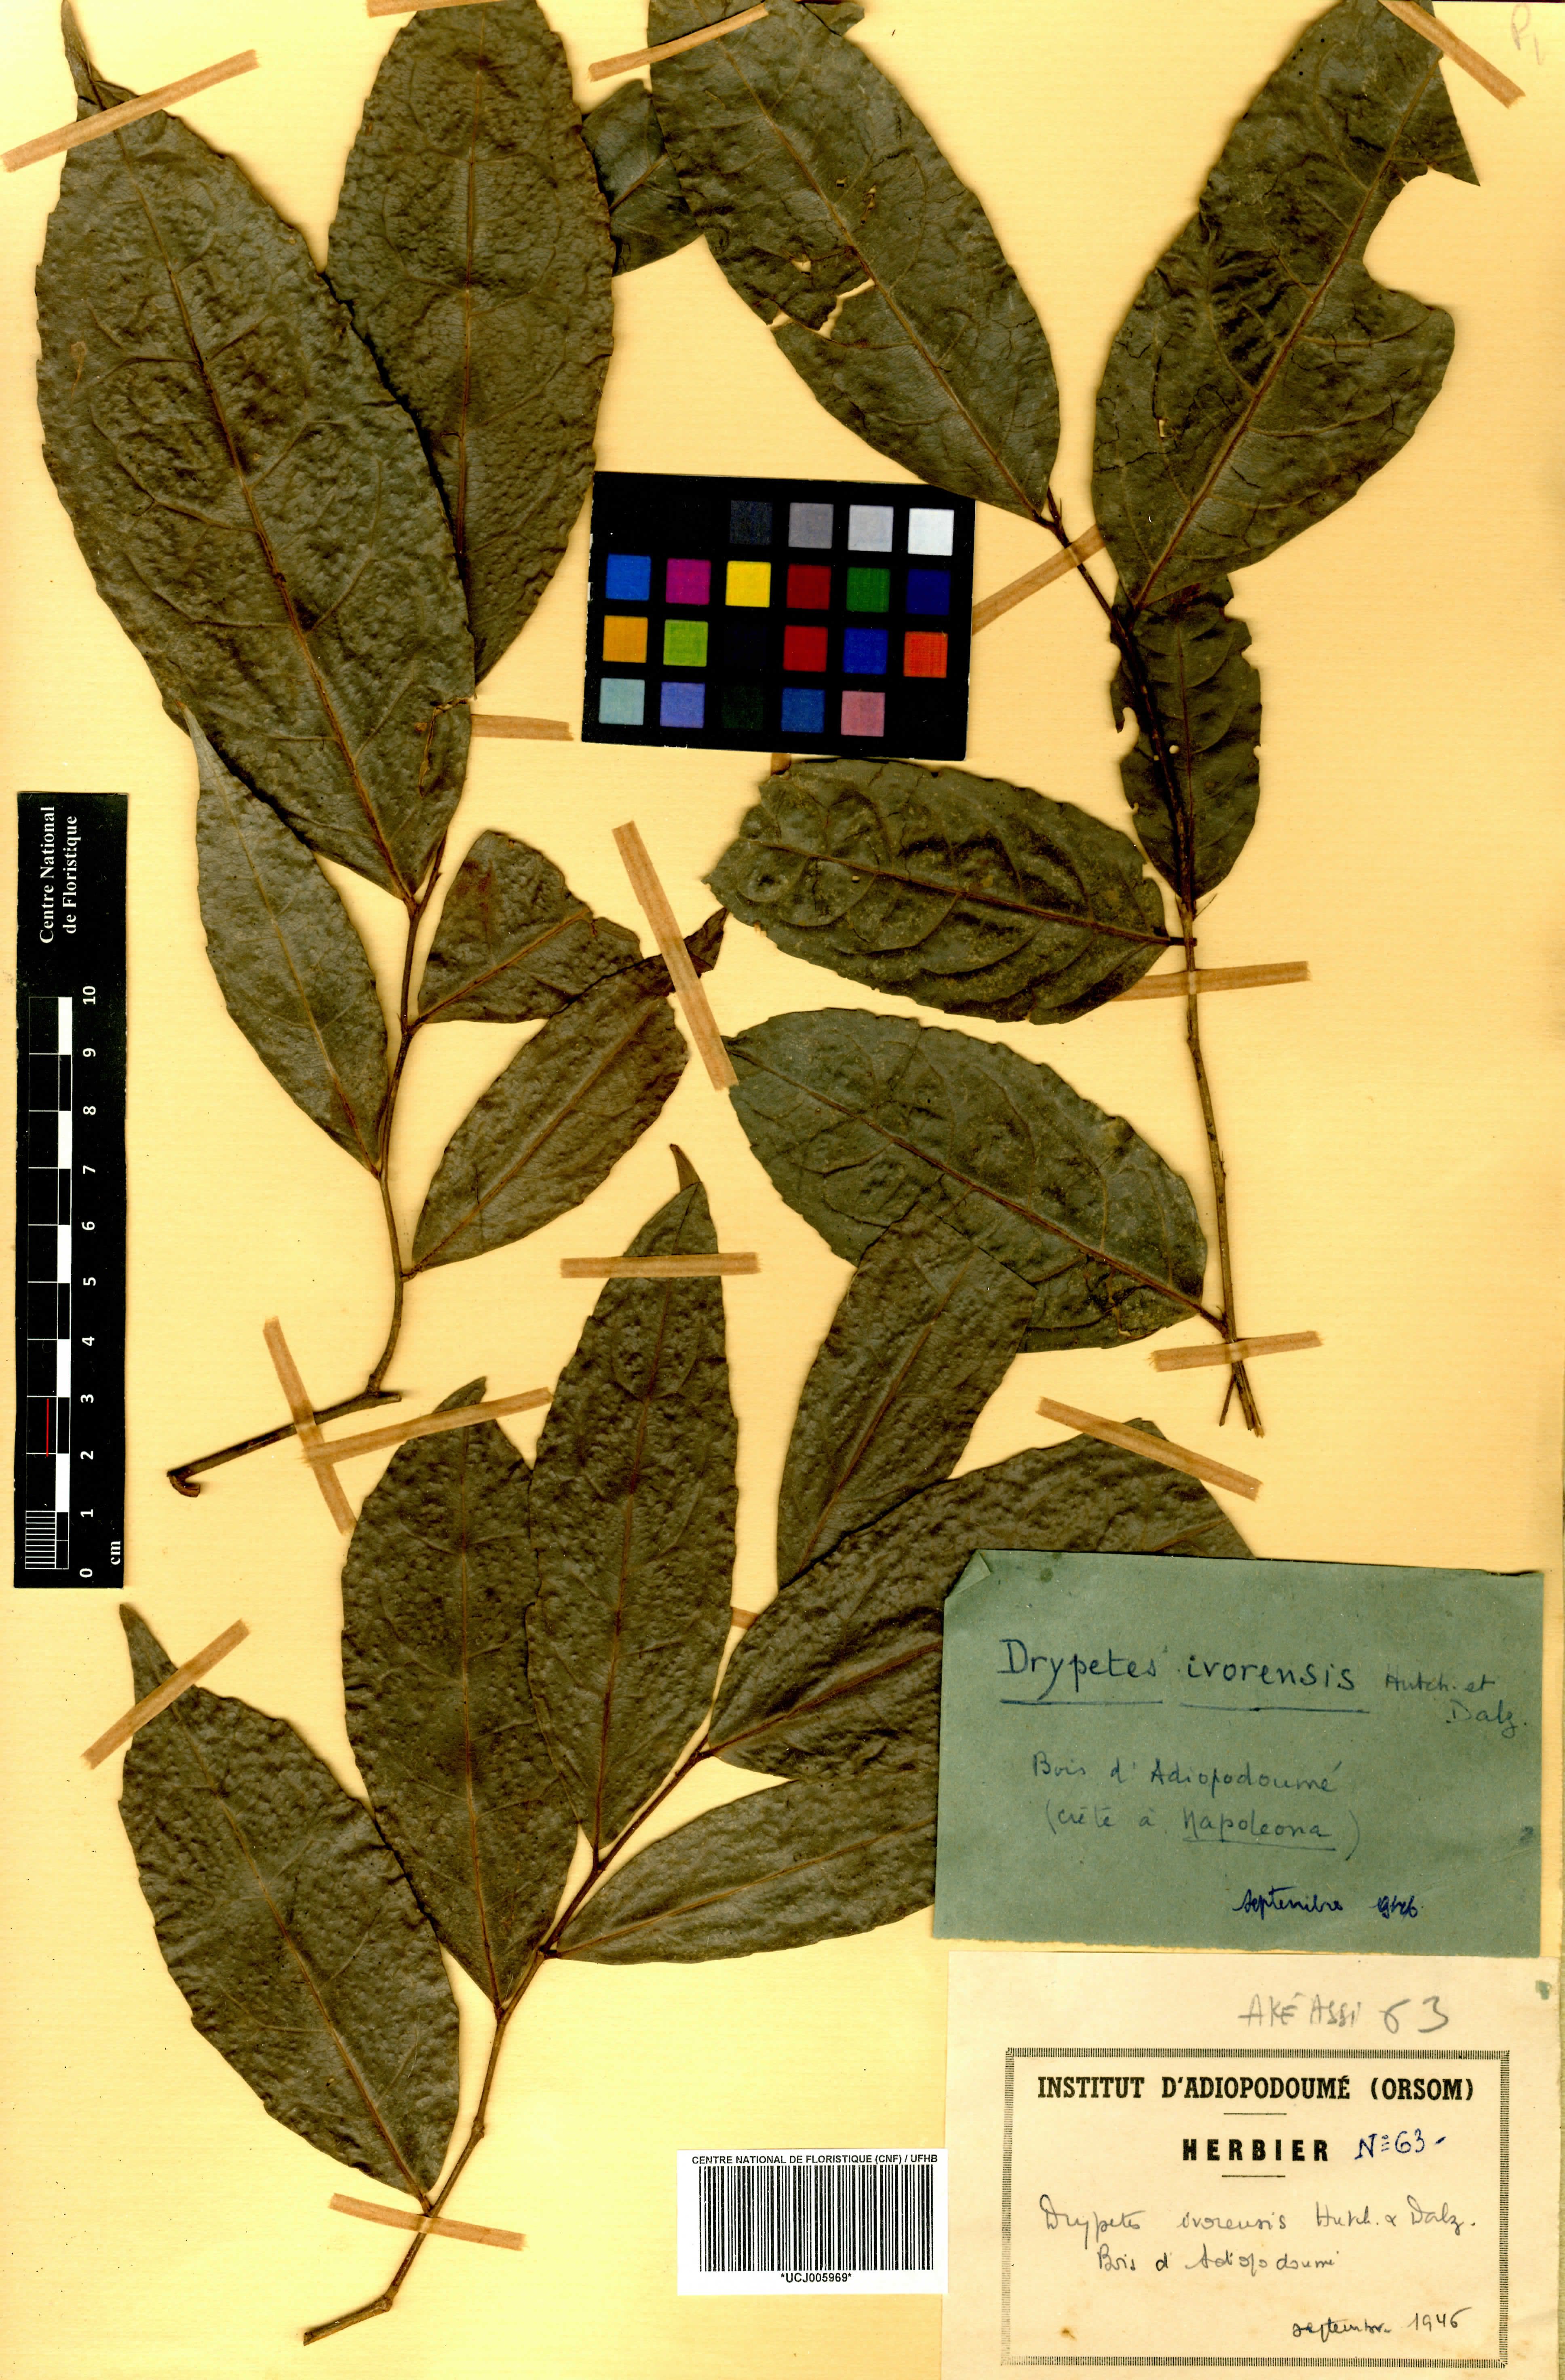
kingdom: Plantae
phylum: Tracheophyta
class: Magnoliopsida
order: Malpighiales
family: Putranjivaceae
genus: Drypetes
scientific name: Drypetes ivorensis
